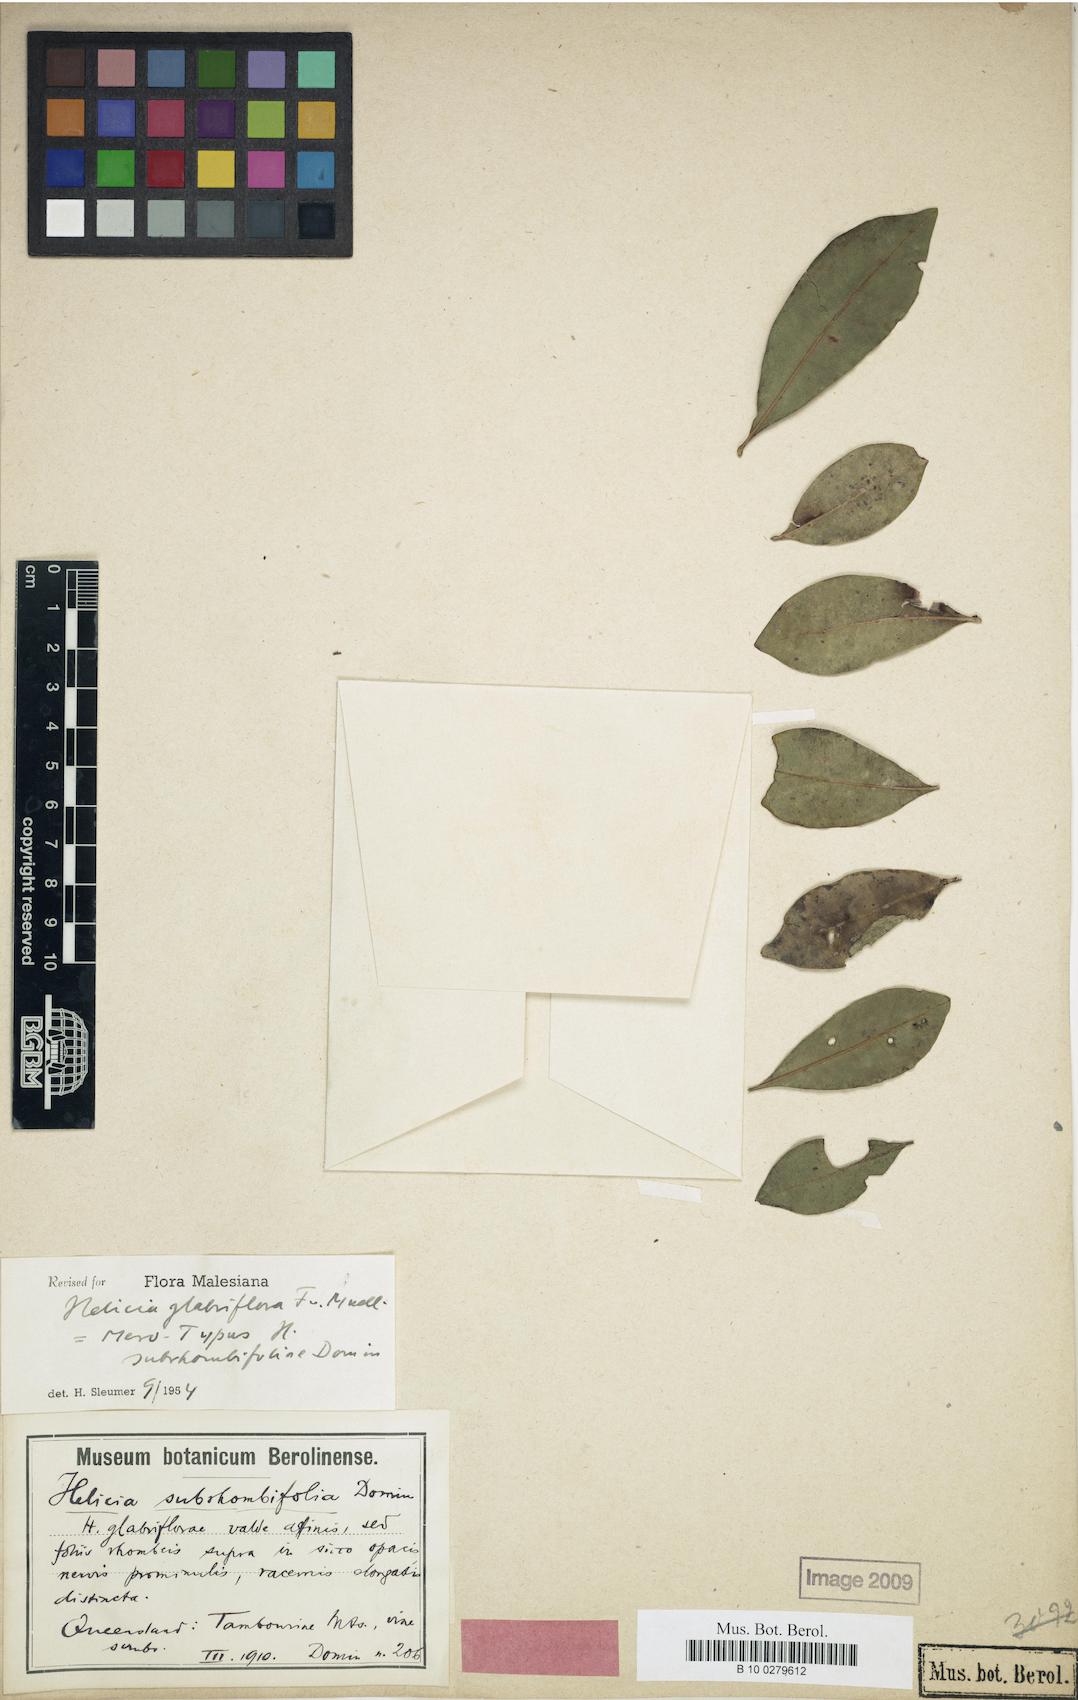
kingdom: Plantae
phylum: Tracheophyta
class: Magnoliopsida
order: Proteales
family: Proteaceae
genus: Helicia
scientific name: Helicia glabriflora
